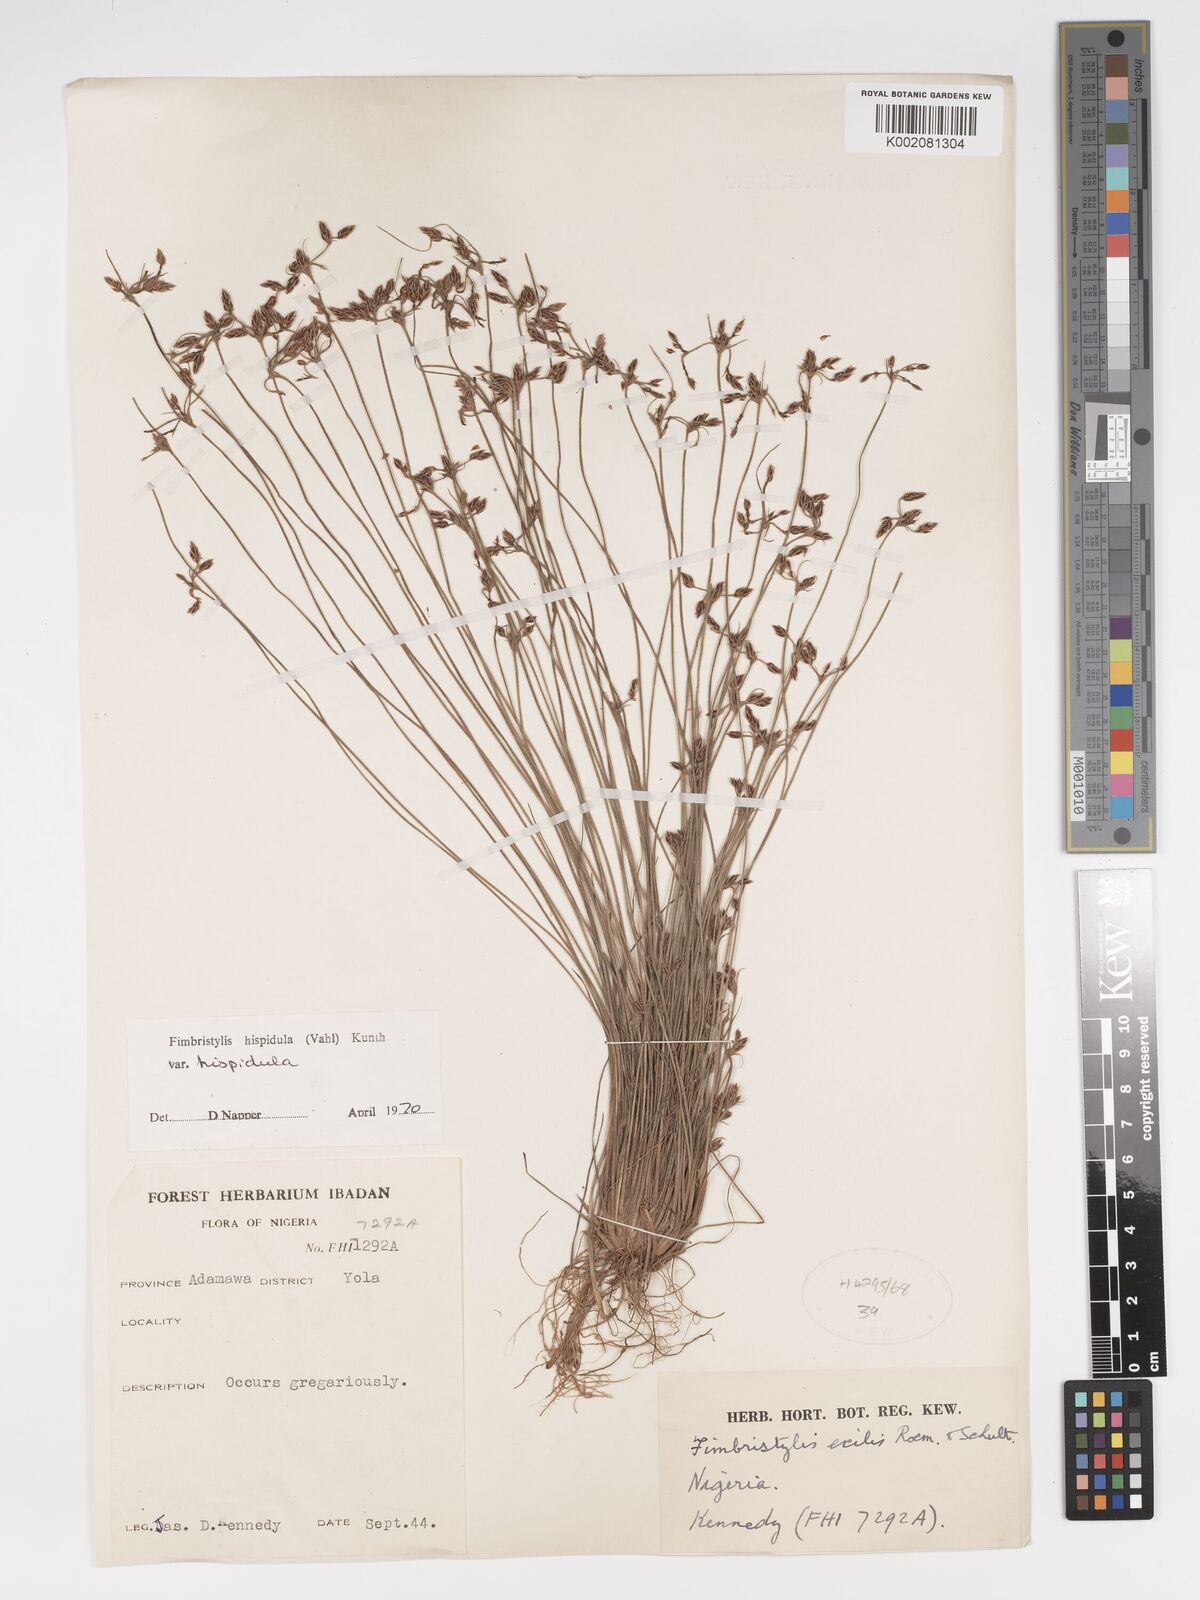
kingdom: Plantae
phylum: Tracheophyta
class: Liliopsida
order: Poales
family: Cyperaceae
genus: Bulbostylis
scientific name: Bulbostylis hispidula
